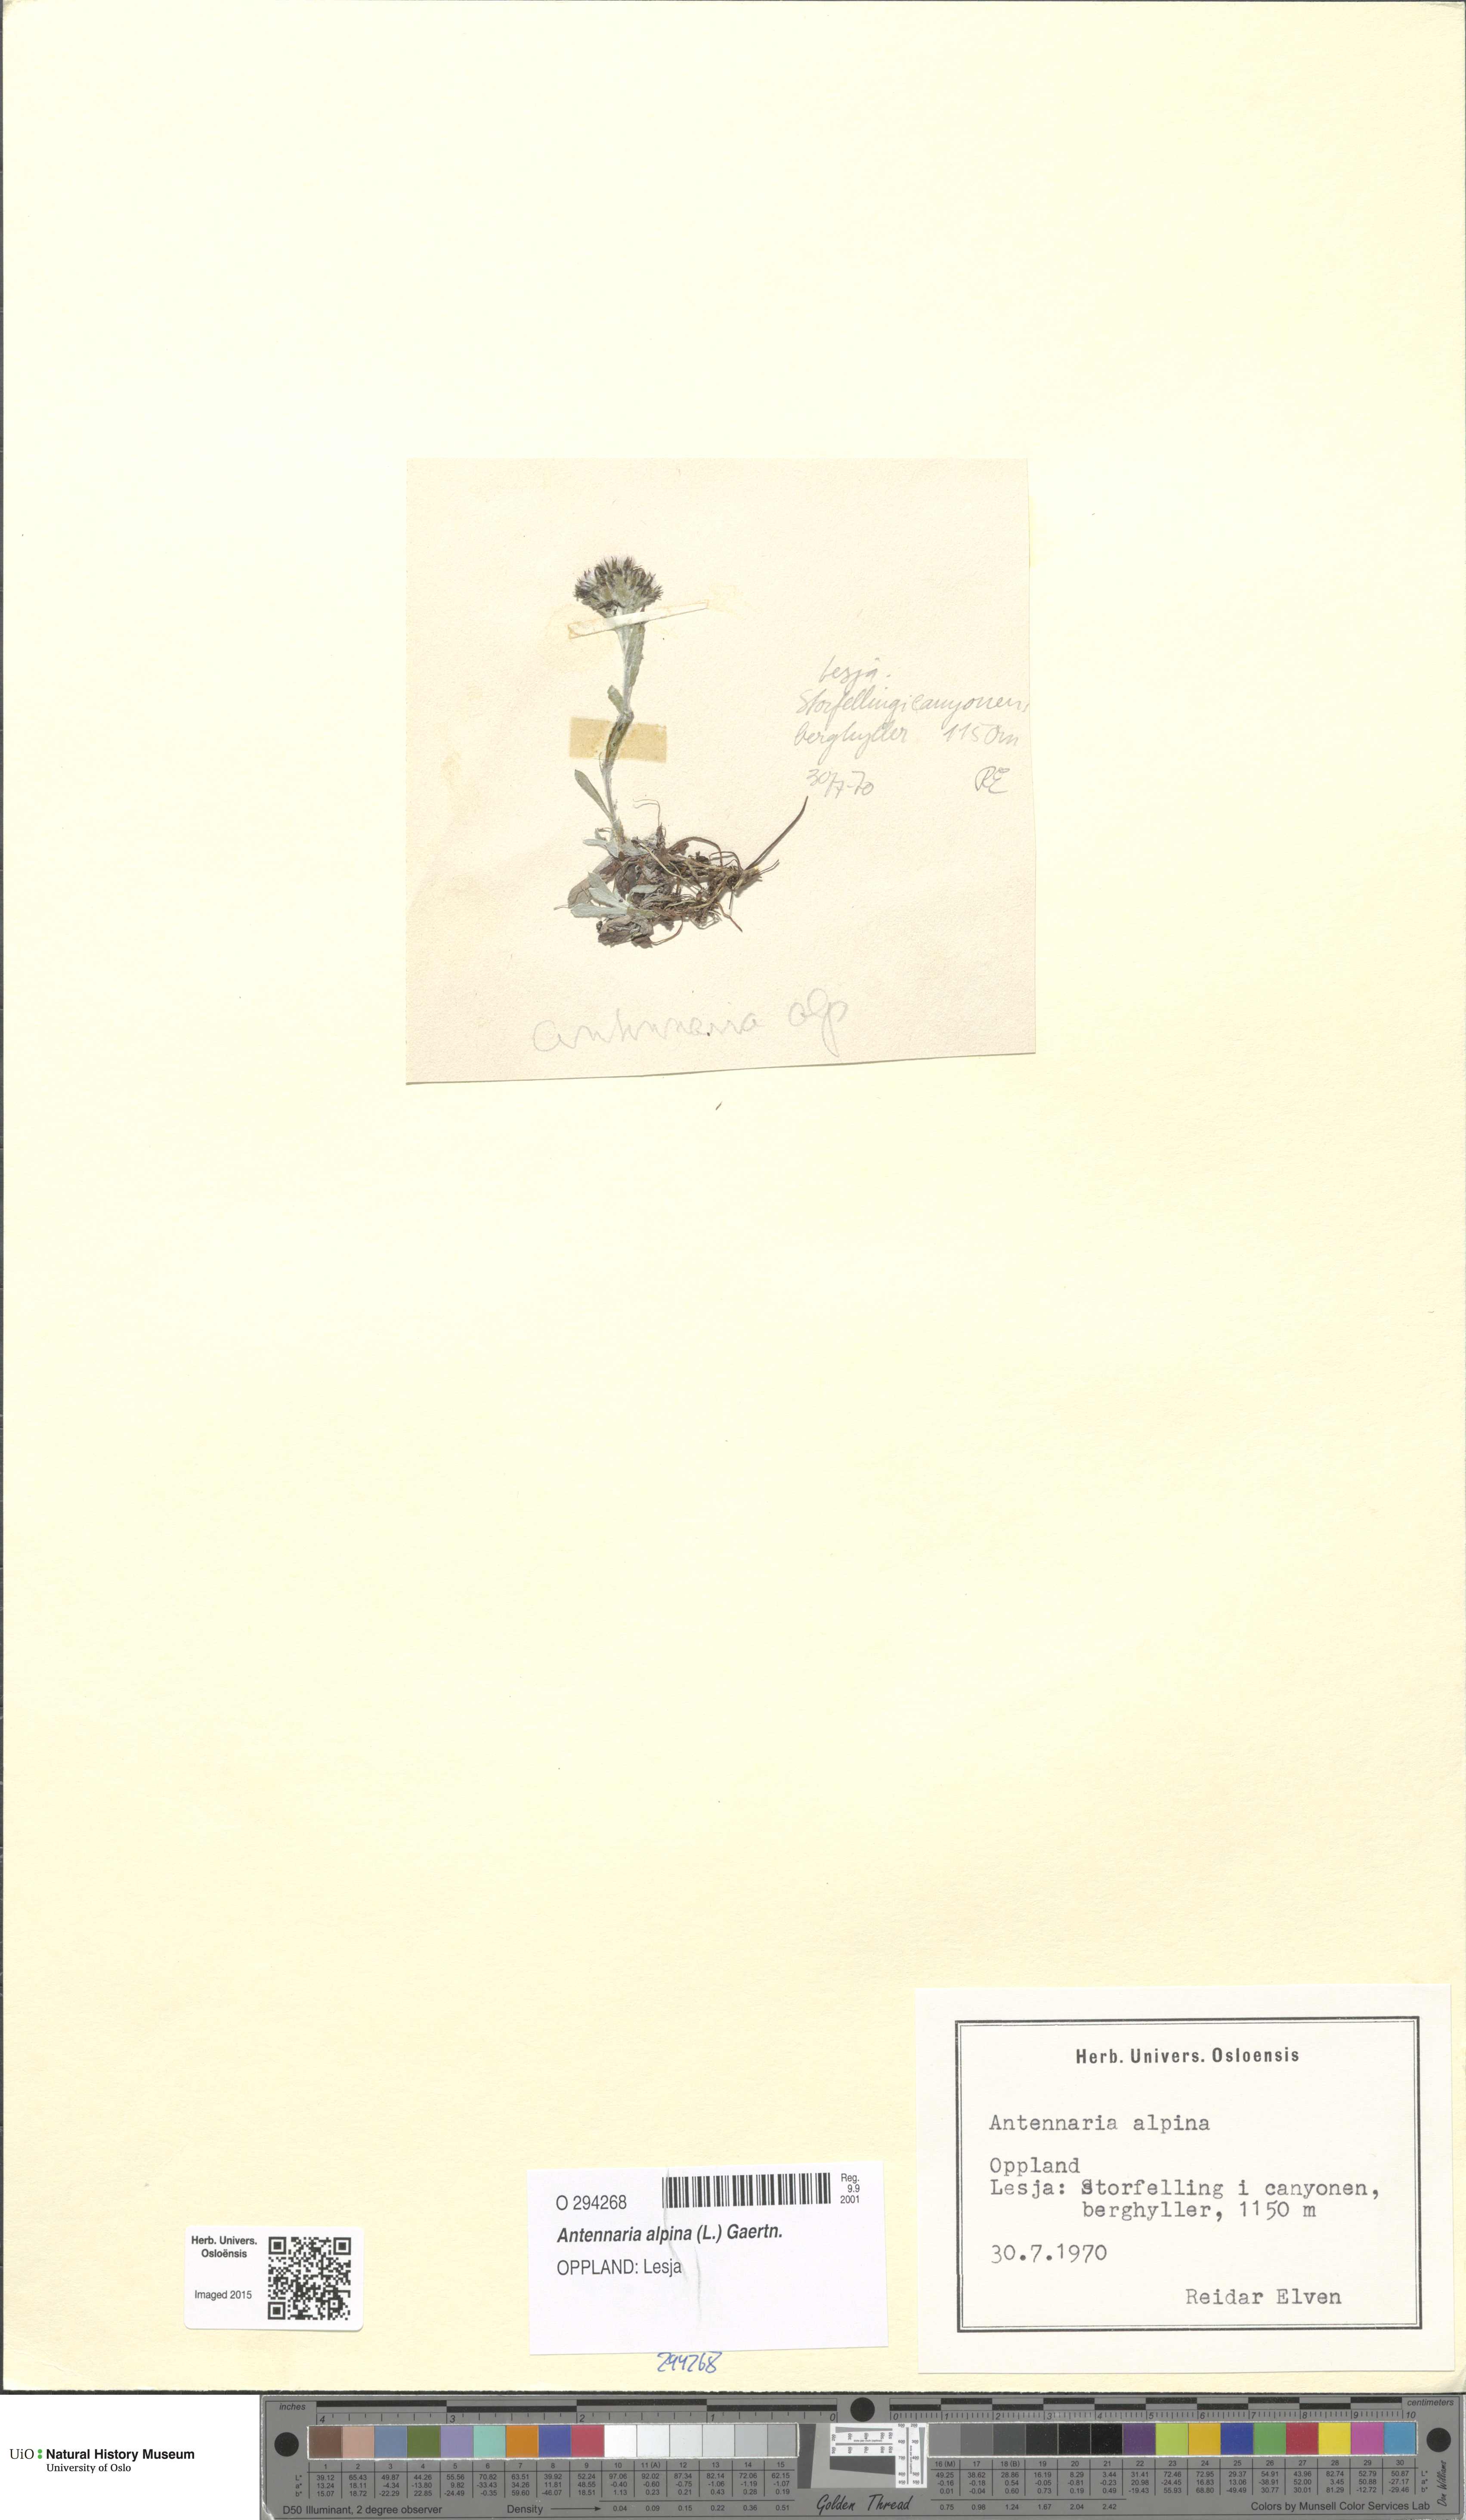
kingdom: Plantae
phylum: Tracheophyta
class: Magnoliopsida
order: Asterales
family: Asteraceae
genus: Antennaria
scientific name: Antennaria alpina
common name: Alpine pussytoes
